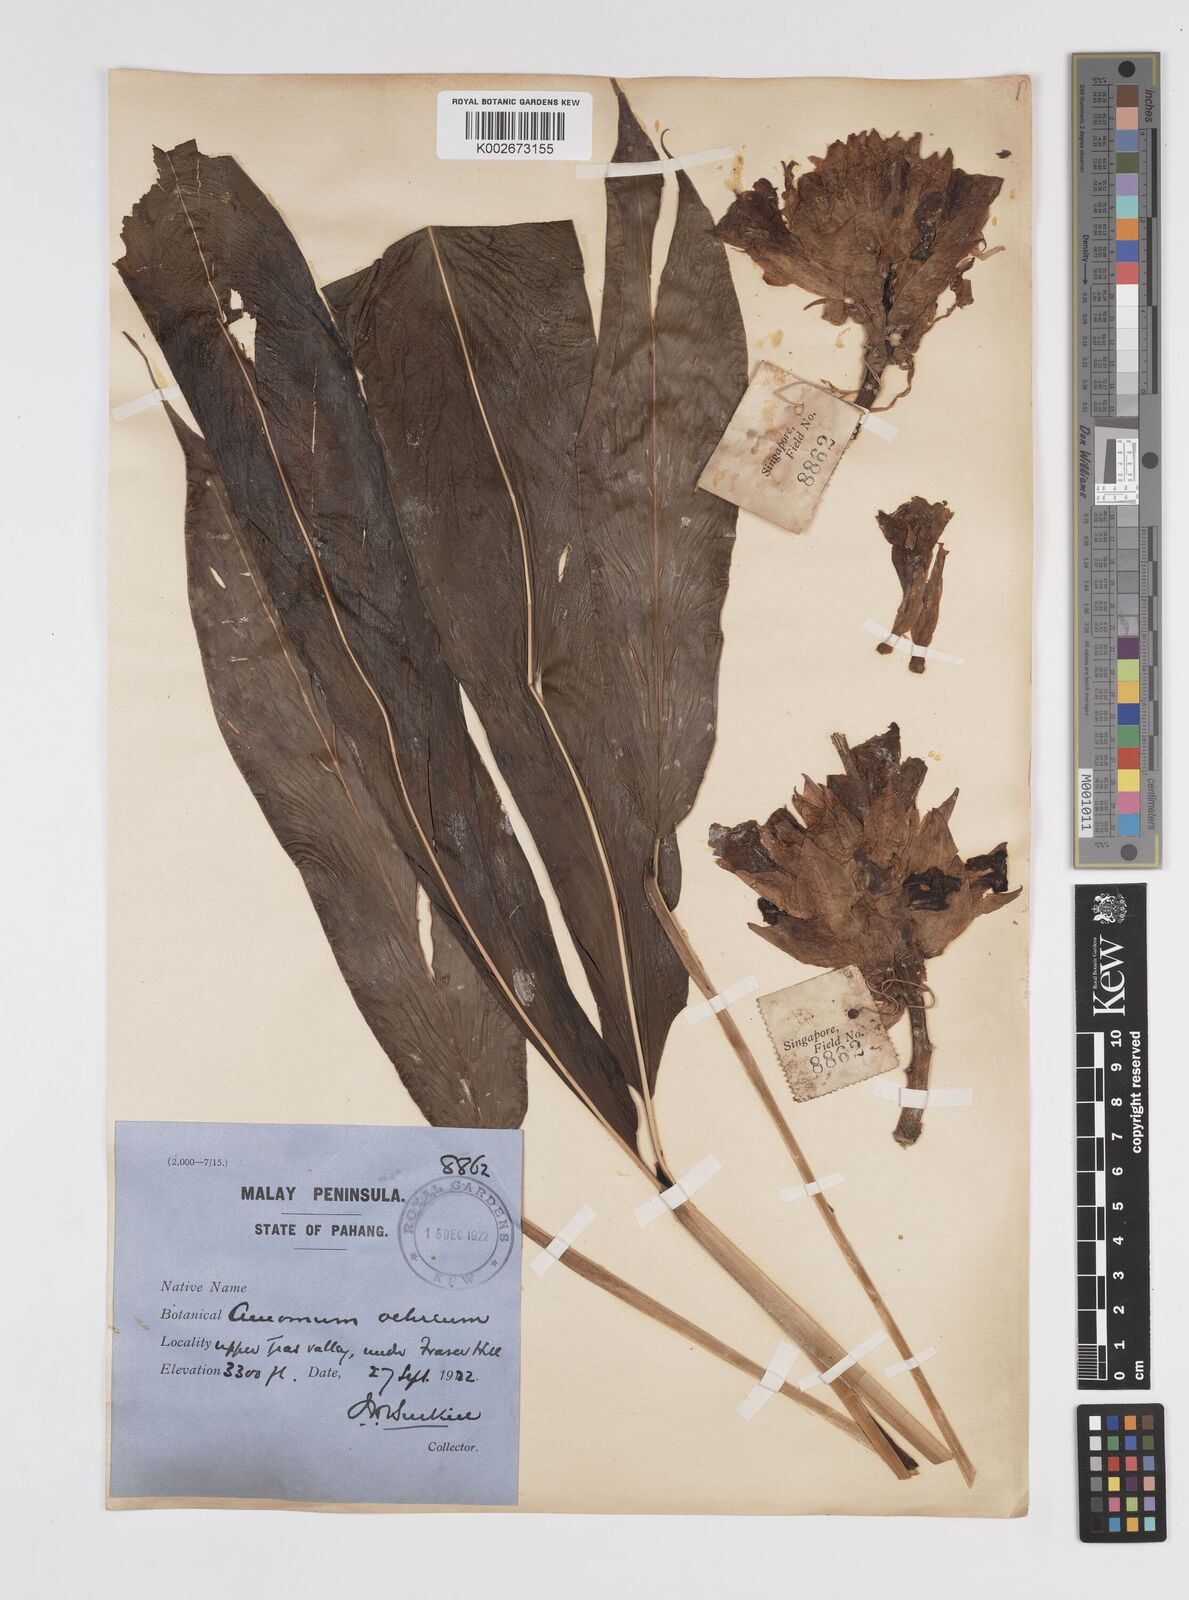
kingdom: Plantae
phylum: Tracheophyta
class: Liliopsida
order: Zingiberales
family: Zingiberaceae
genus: Meistera
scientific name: Meistera ochrea
